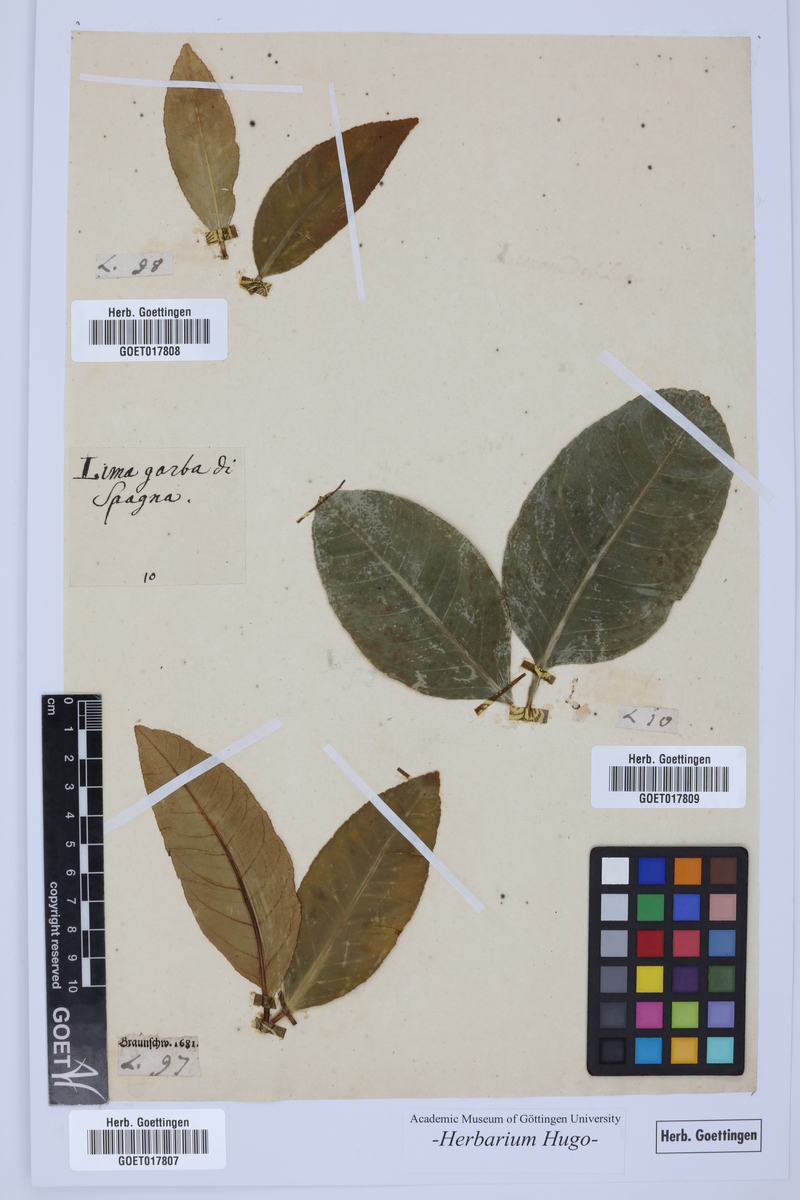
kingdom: Plantae
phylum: Tracheophyta
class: Magnoliopsida
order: Sapindales
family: Rutaceae
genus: Citrus
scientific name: Citrus
